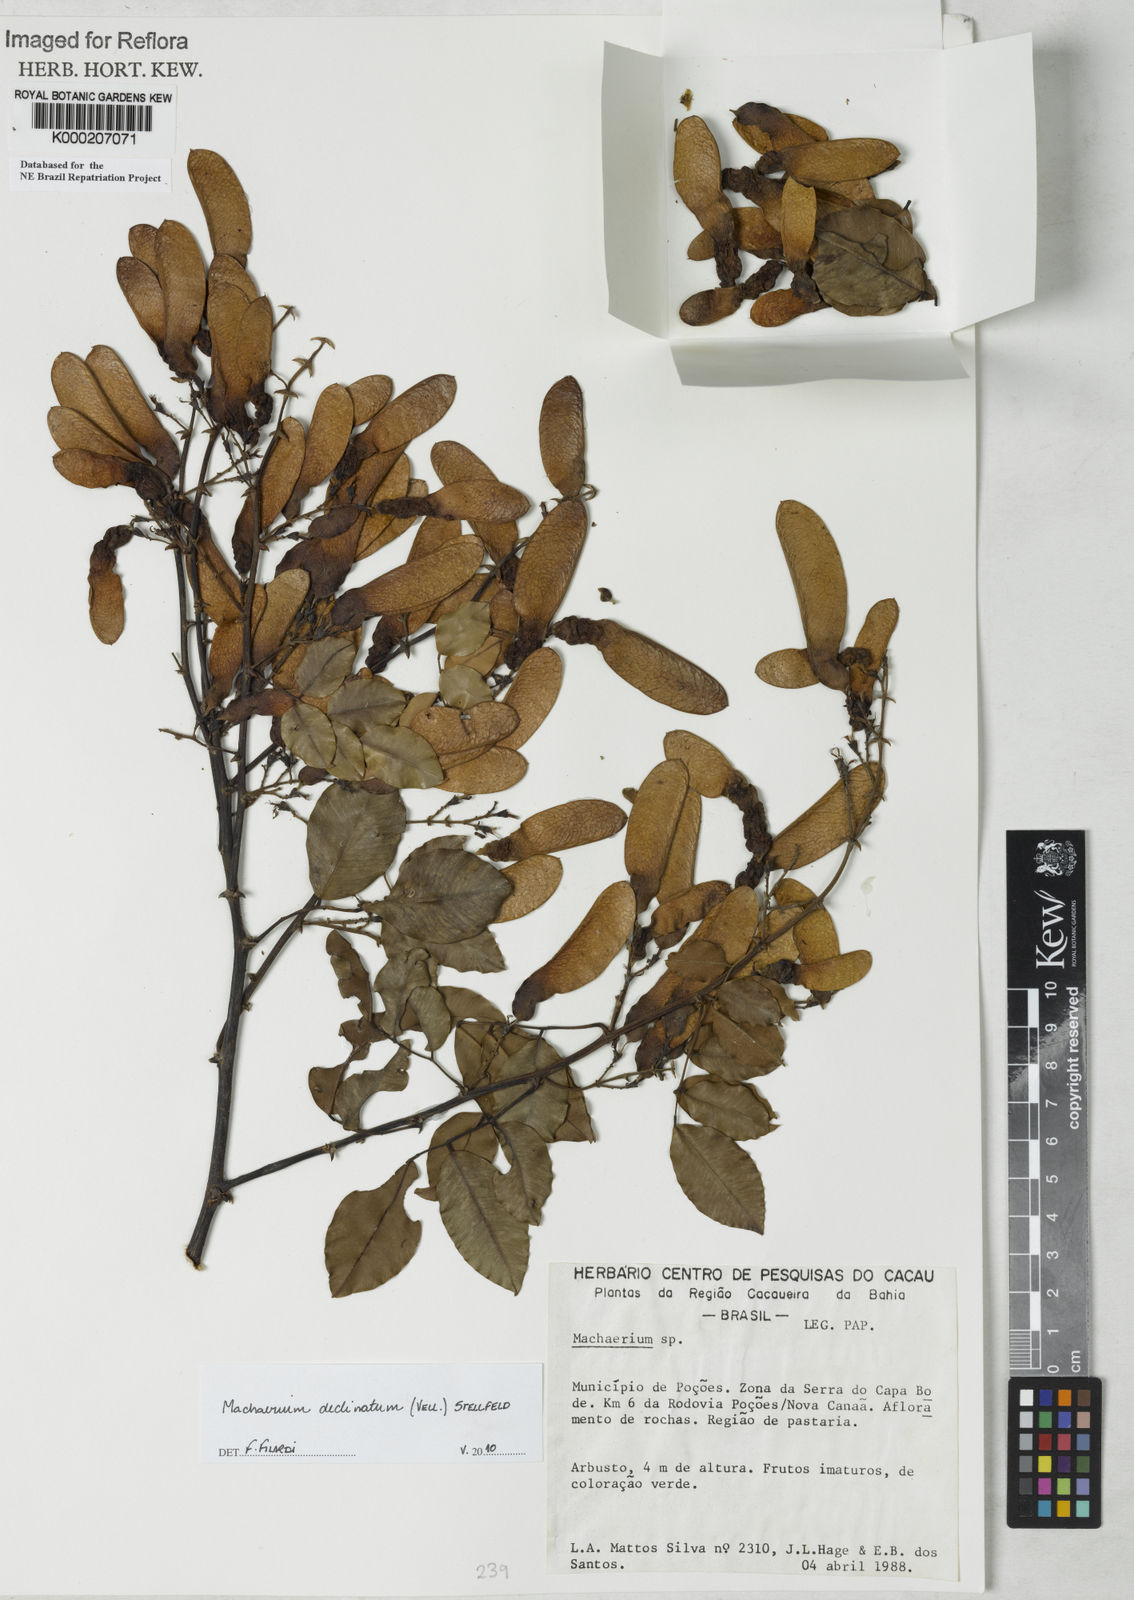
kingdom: Plantae
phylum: Tracheophyta
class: Magnoliopsida
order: Fabales
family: Fabaceae
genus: Machaerium
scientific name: Machaerium
